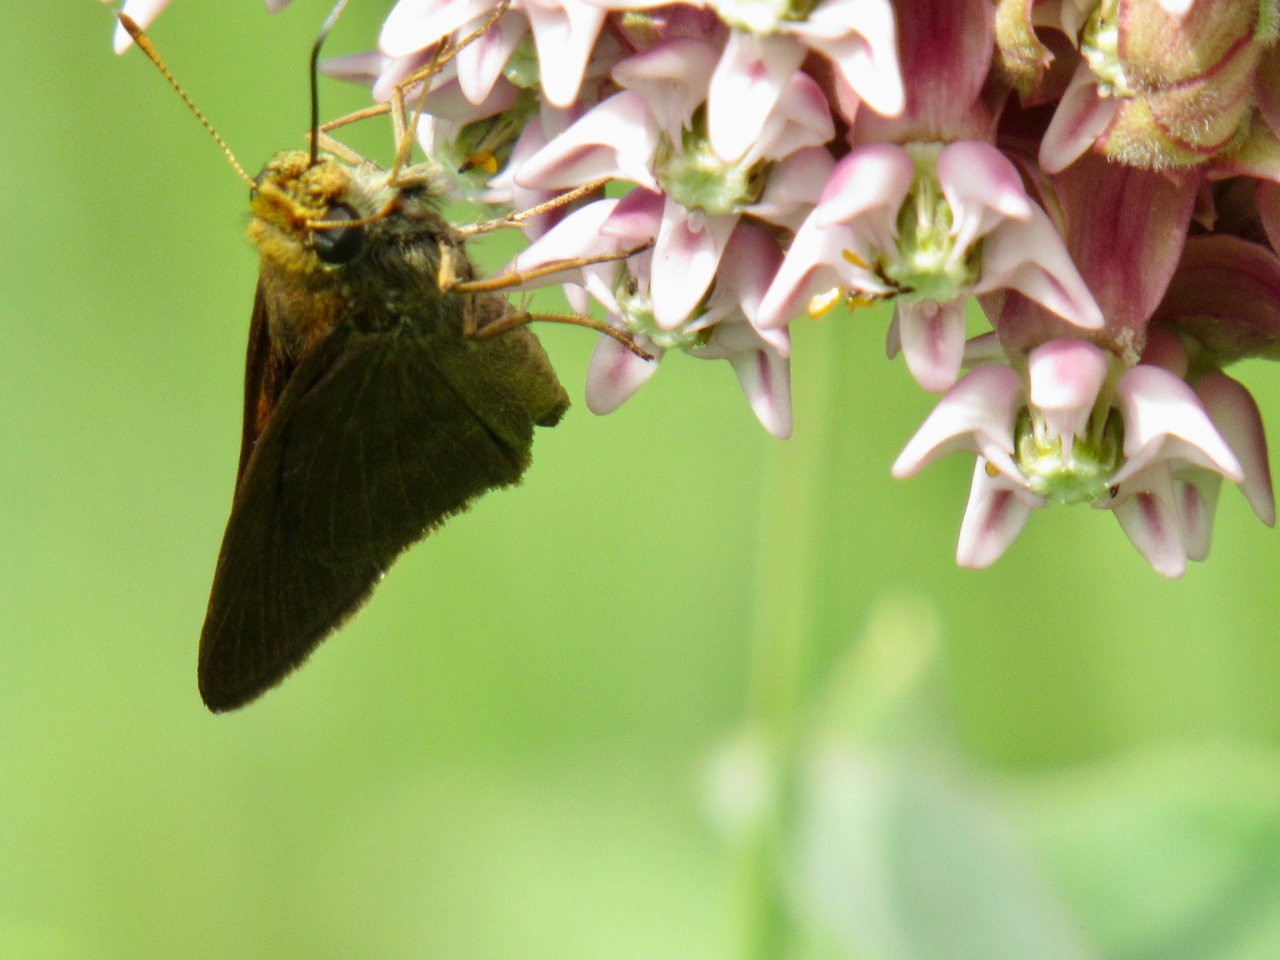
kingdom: Animalia
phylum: Arthropoda
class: Insecta
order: Lepidoptera
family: Hesperiidae
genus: Euphyes
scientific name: Euphyes vestris
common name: Dun Skipper
